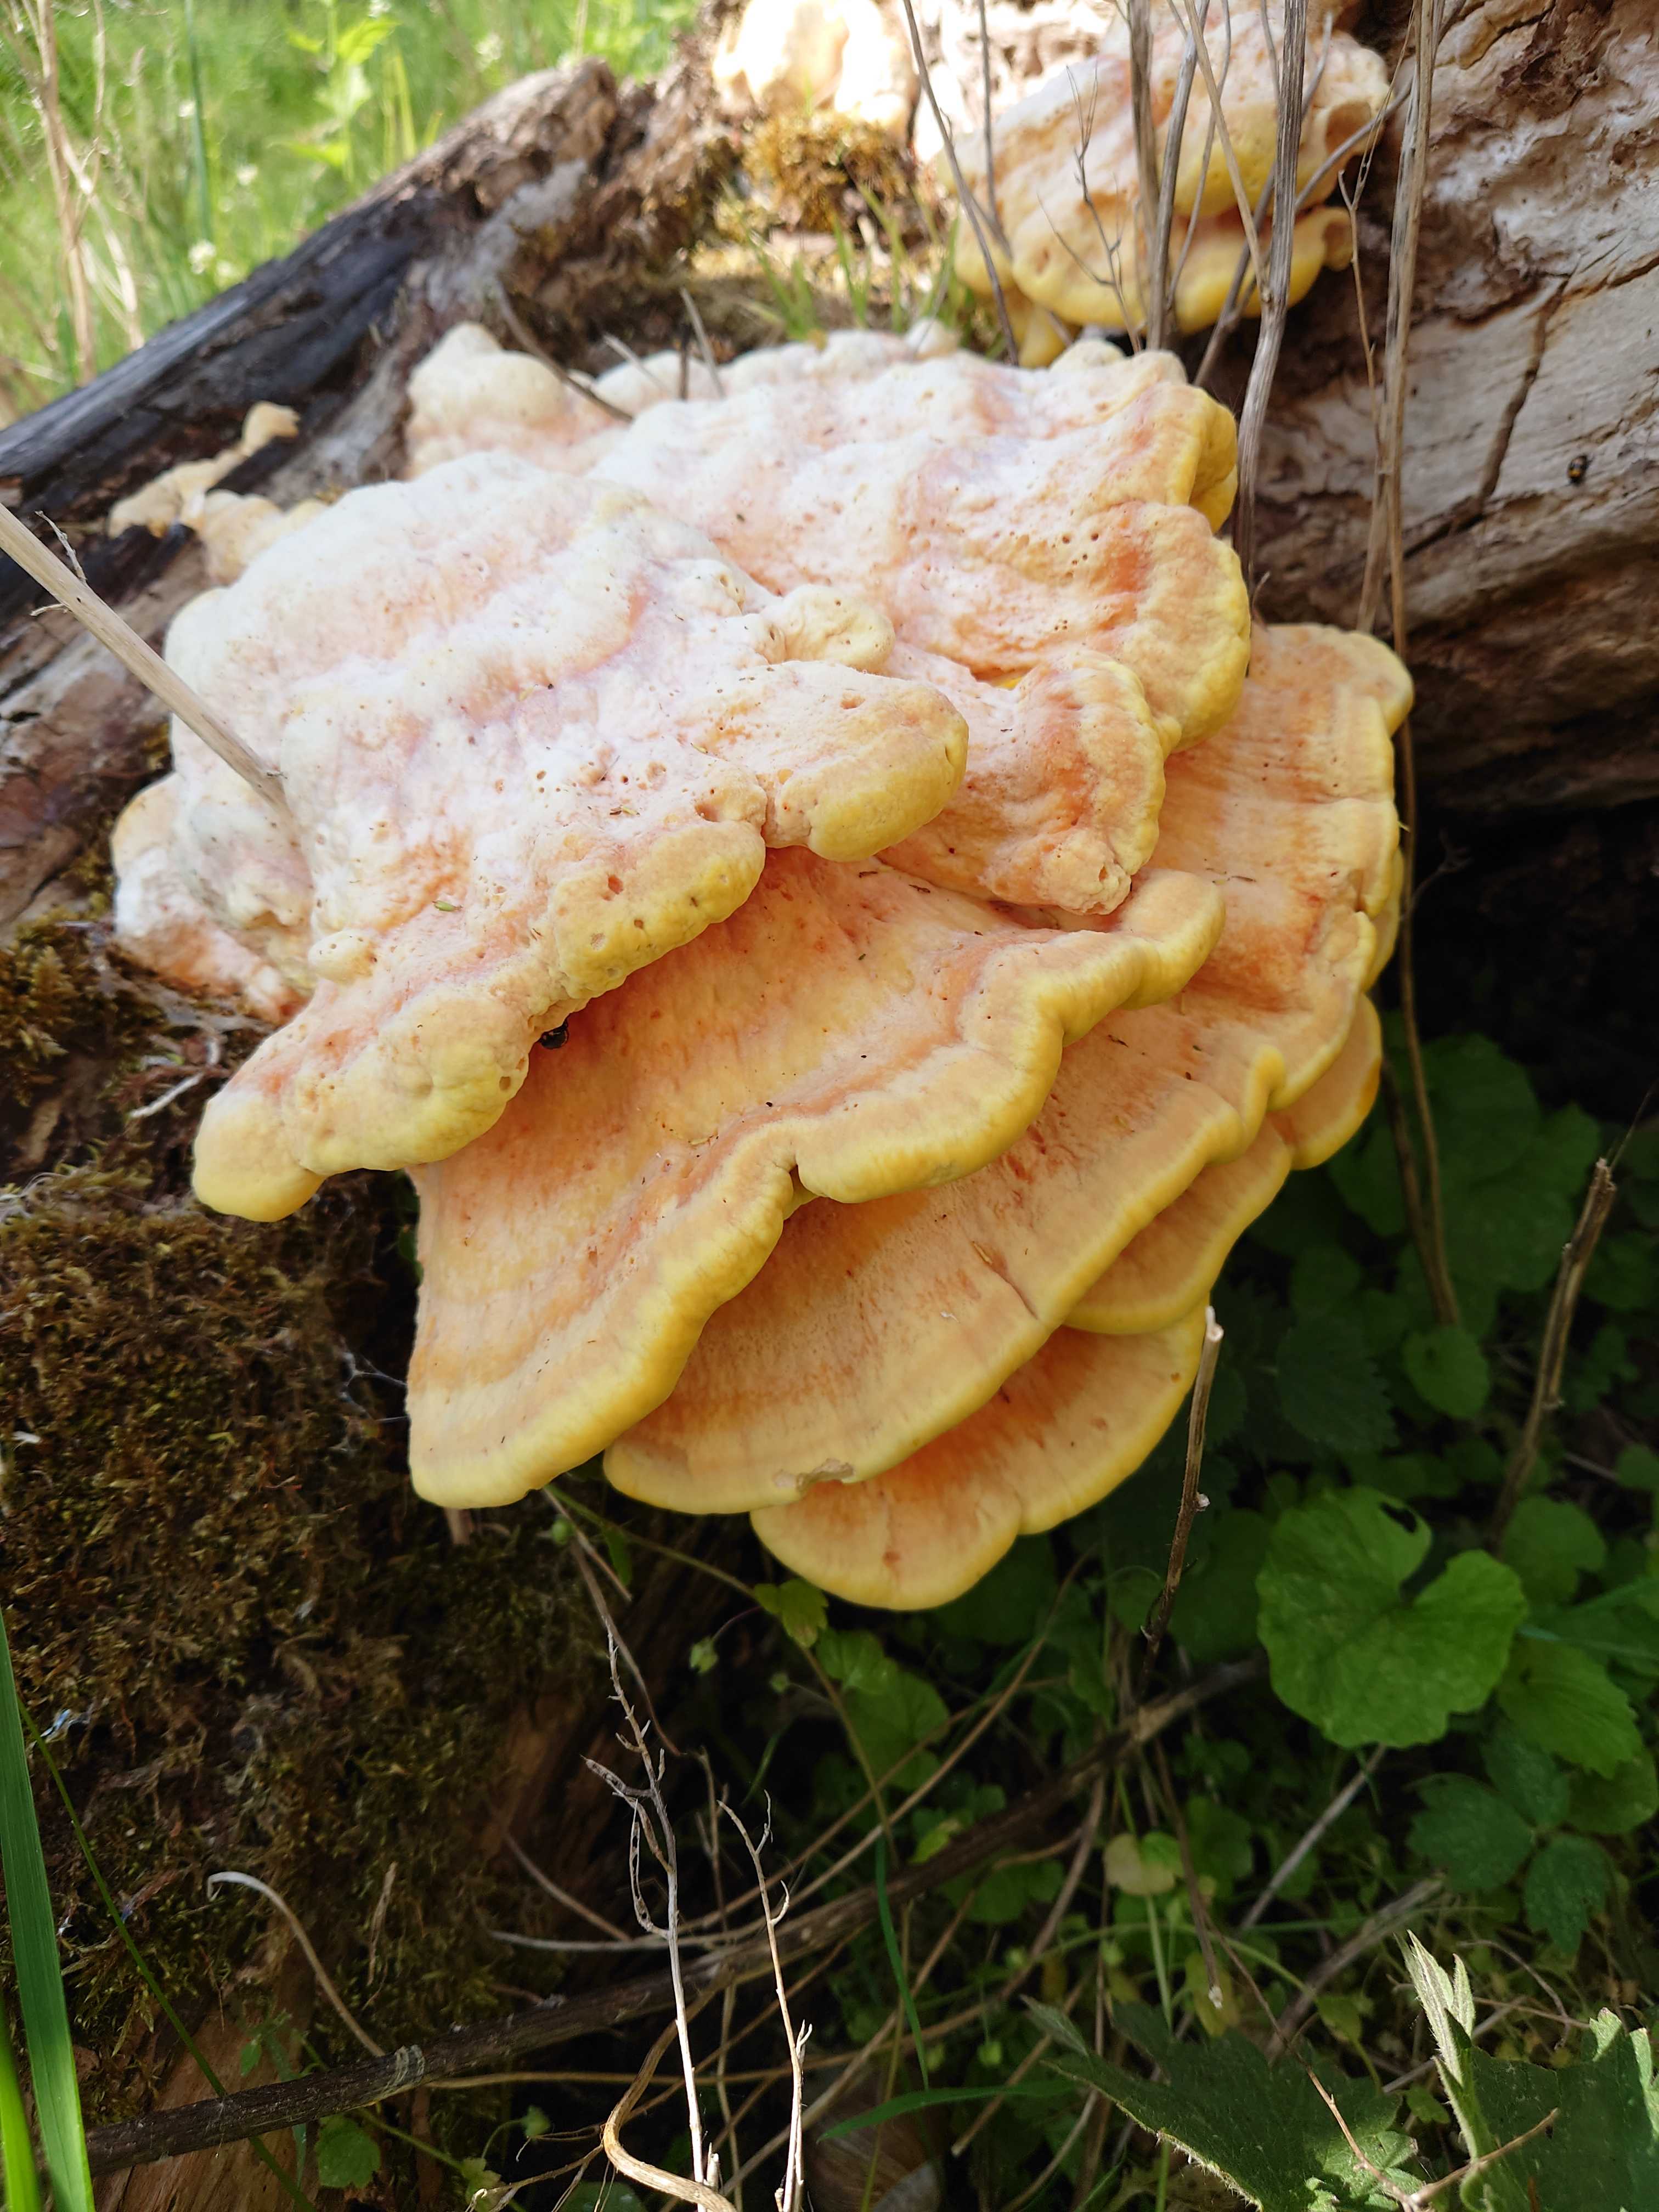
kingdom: Fungi
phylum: Basidiomycota
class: Agaricomycetes
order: Polyporales
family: Laetiporaceae
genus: Laetiporus
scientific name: Laetiporus sulphureus
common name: svovlporesvamp
